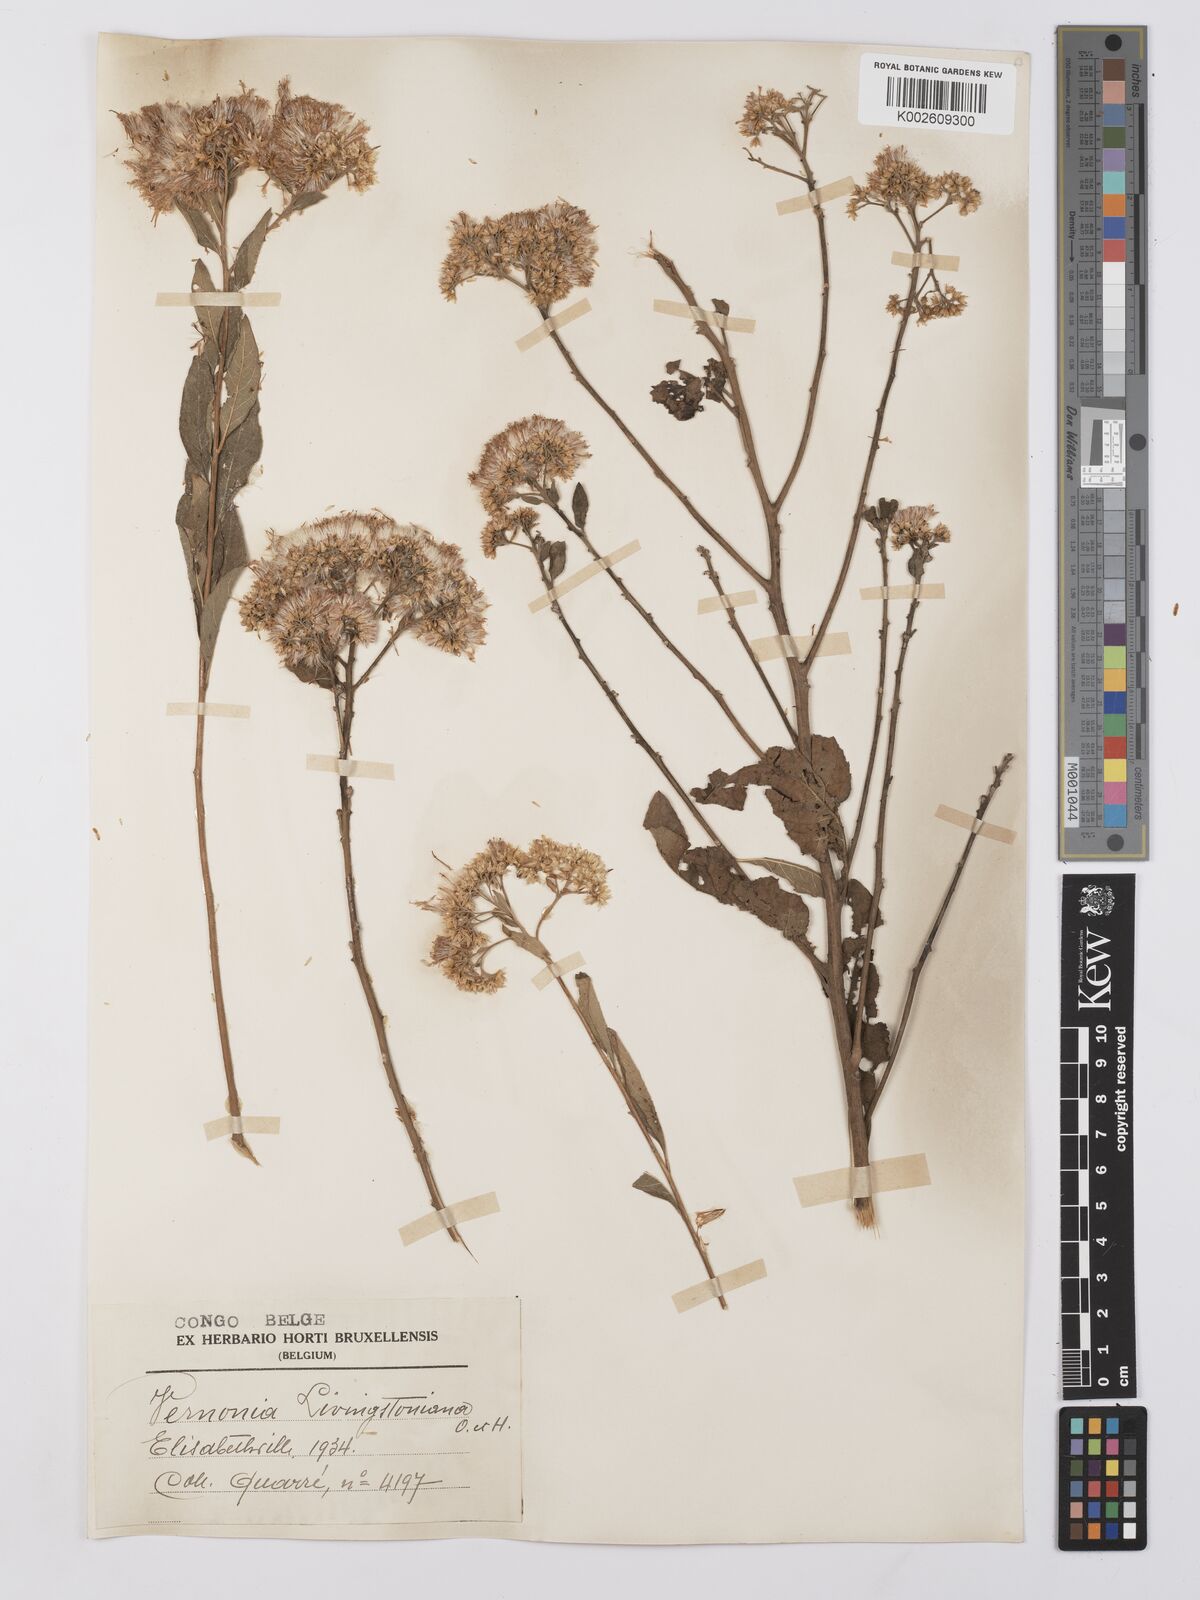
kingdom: Plantae
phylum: Tracheophyta
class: Magnoliopsida
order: Asterales
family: Asteraceae
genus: Gymnanthemum
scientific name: Gymnanthemum thomsonianum
